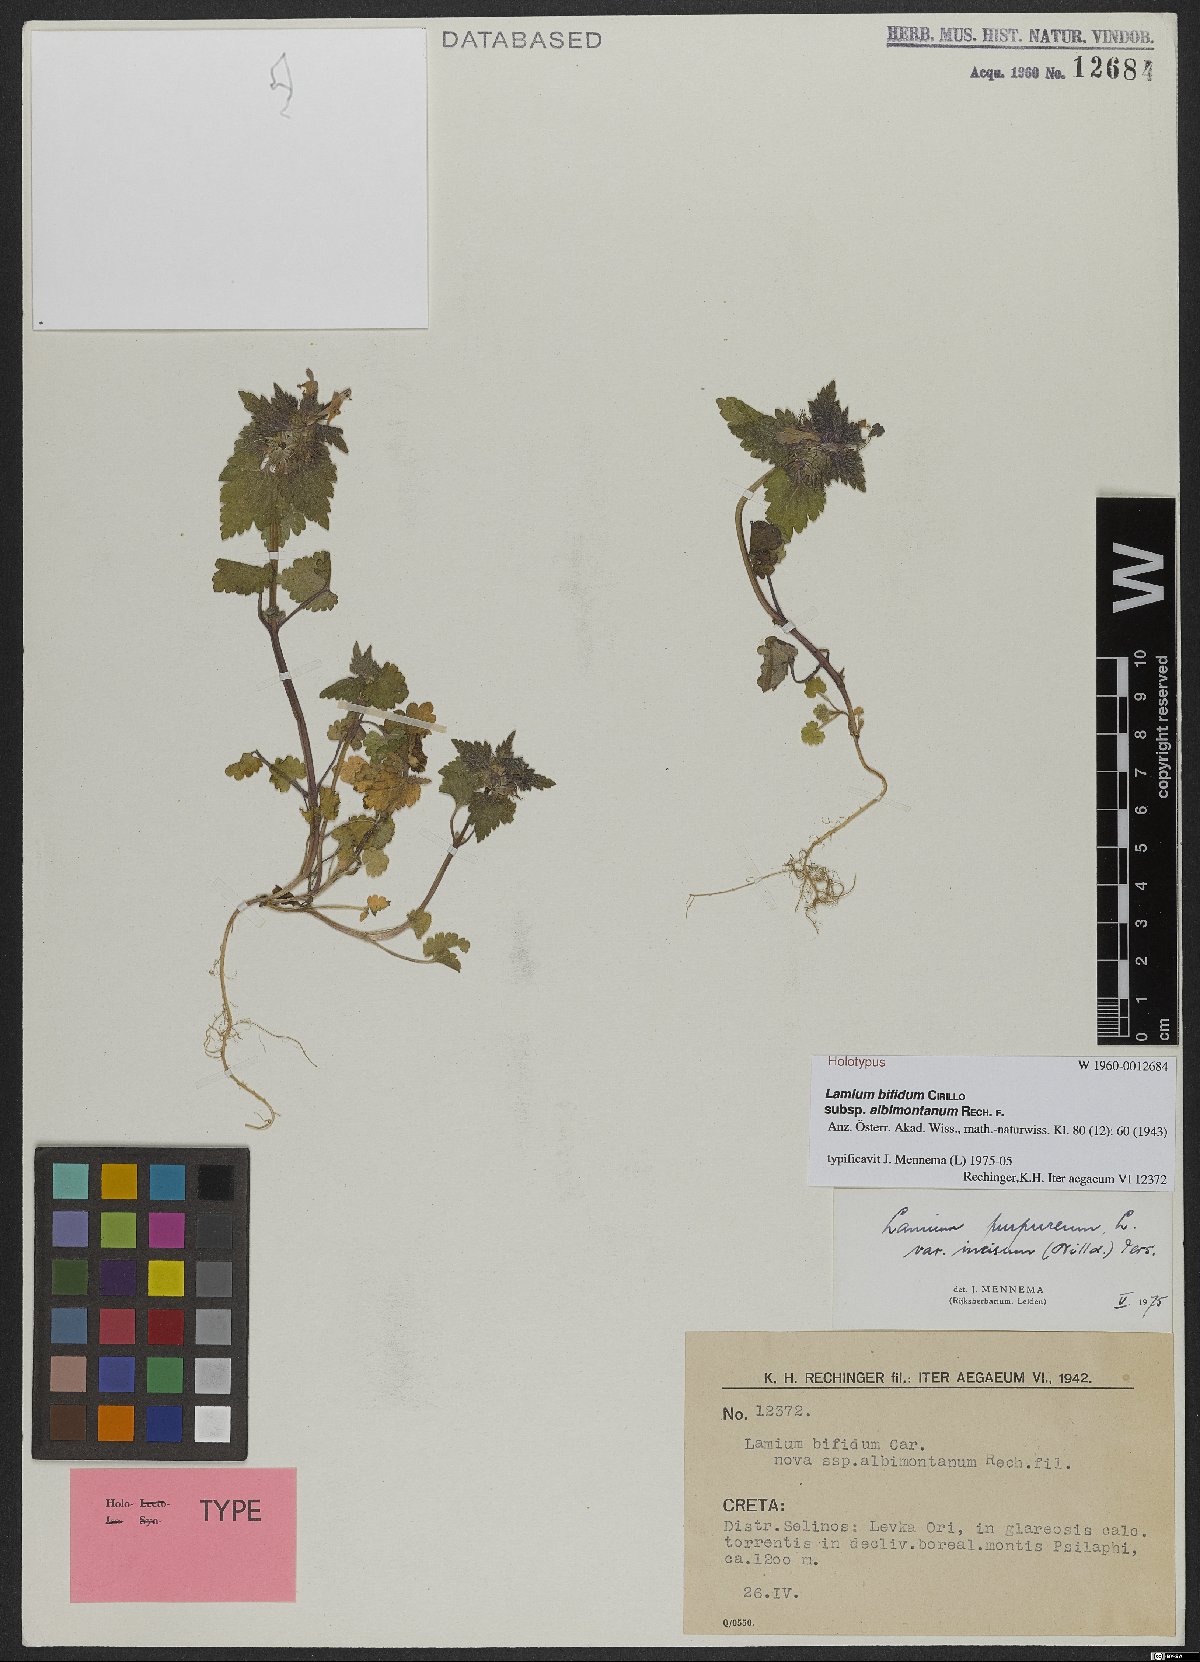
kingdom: Plantae
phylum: Tracheophyta
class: Magnoliopsida
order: Lamiales
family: Lamiaceae
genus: Lamium
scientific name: Lamium purpureum
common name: Red dead-nettle
